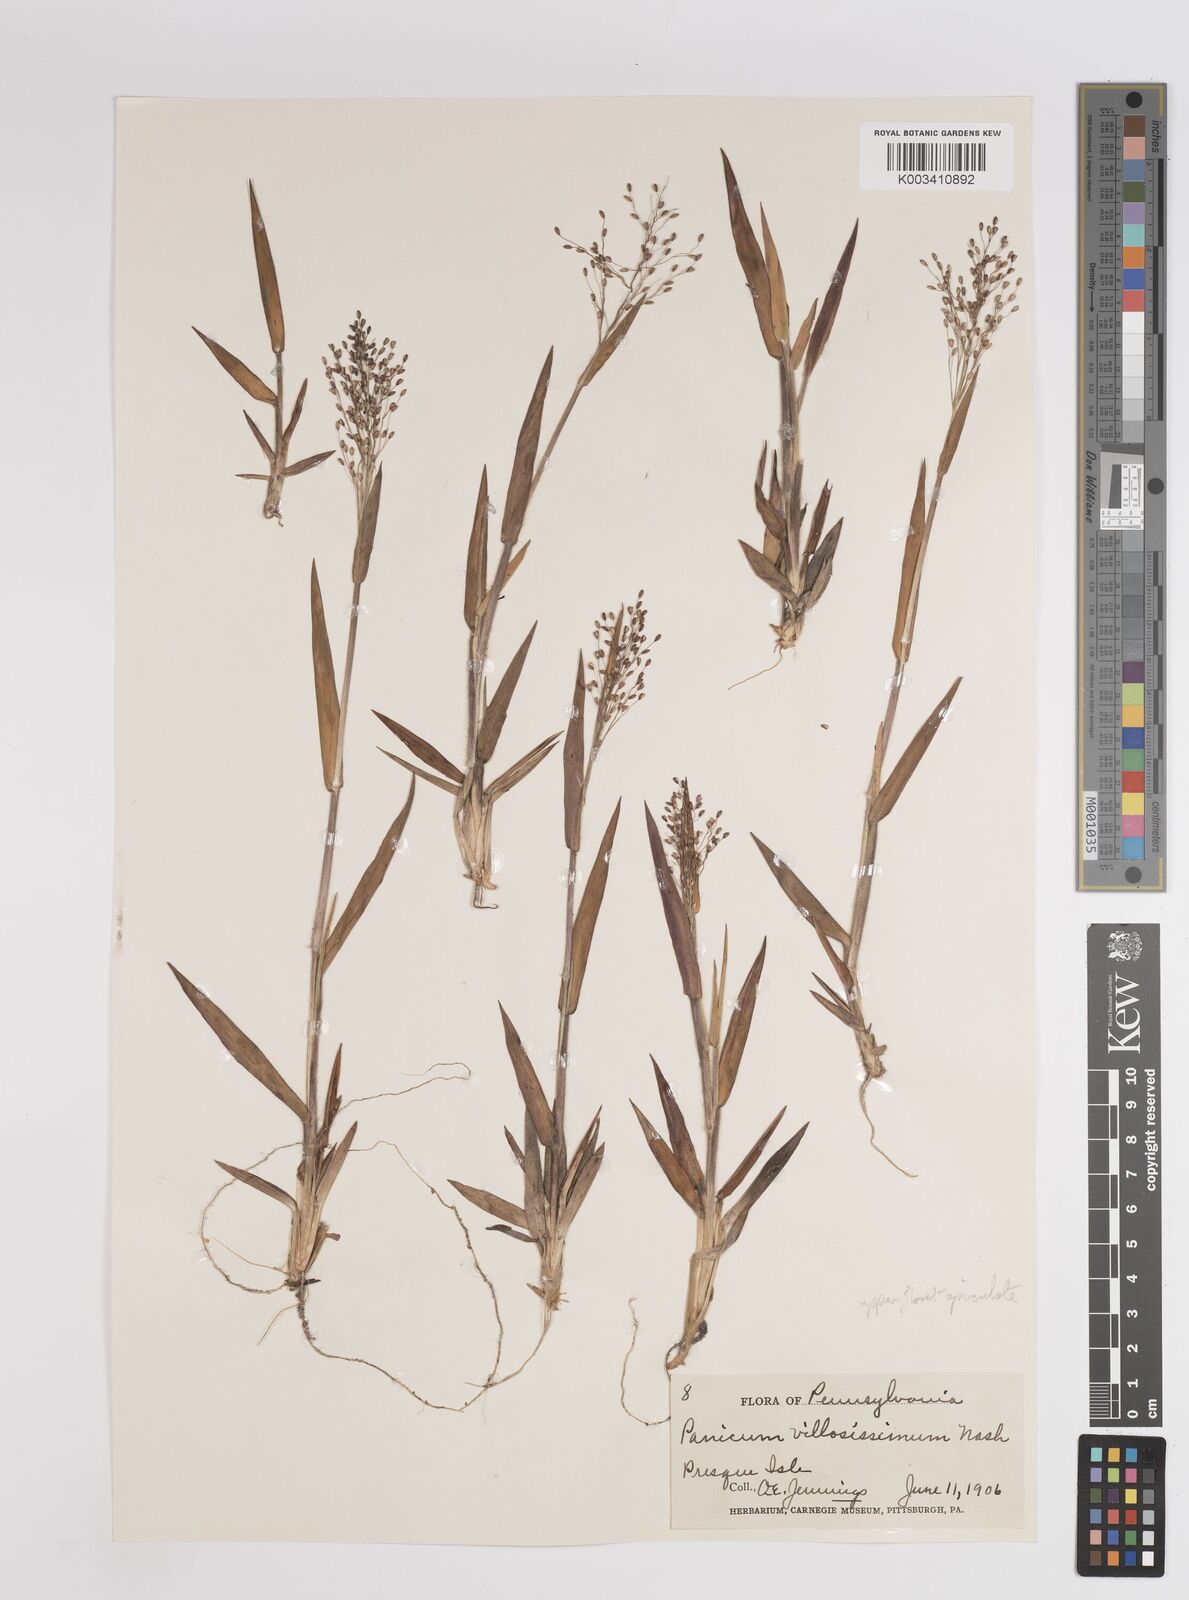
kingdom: Plantae
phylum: Tracheophyta
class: Liliopsida
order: Poales
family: Poaceae
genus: Dichanthelium
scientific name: Dichanthelium villosissimum
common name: White-haired panicgrass
